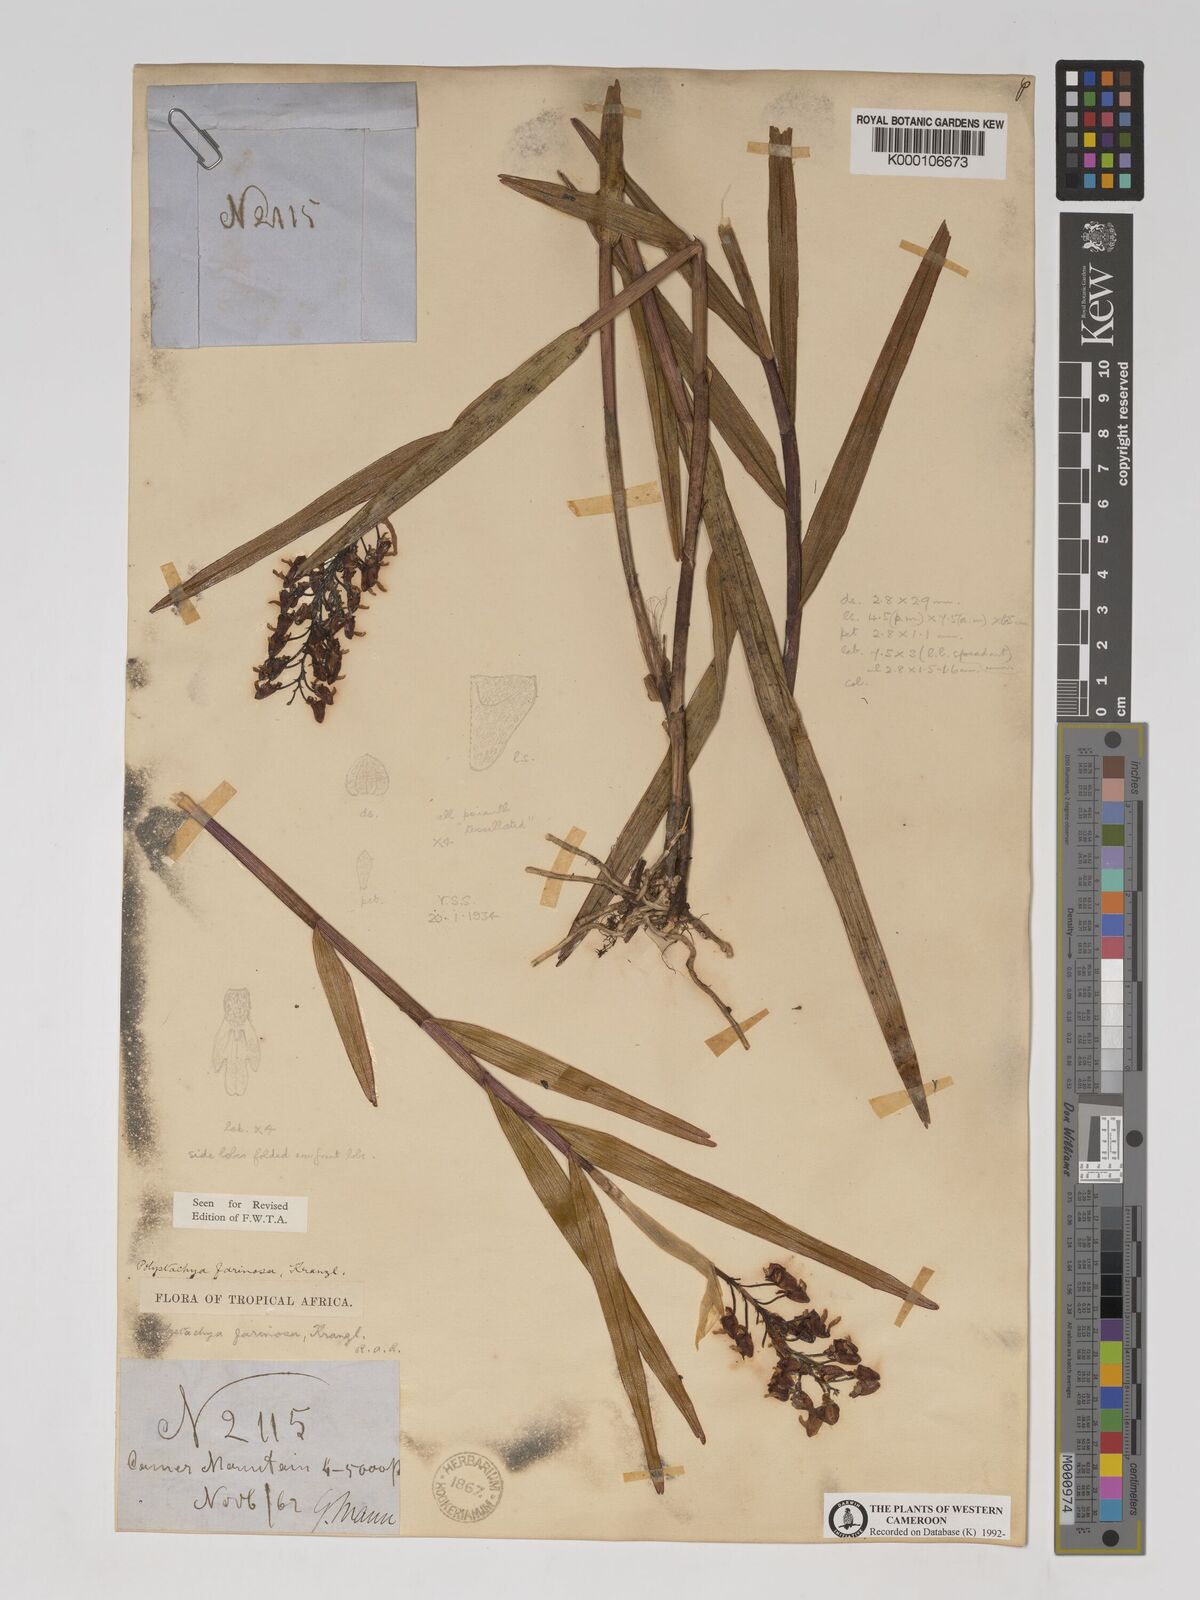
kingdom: Plantae
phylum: Tracheophyta
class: Liliopsida
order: Asparagales
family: Orchidaceae
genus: Polystachya
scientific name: Polystachya bifida
